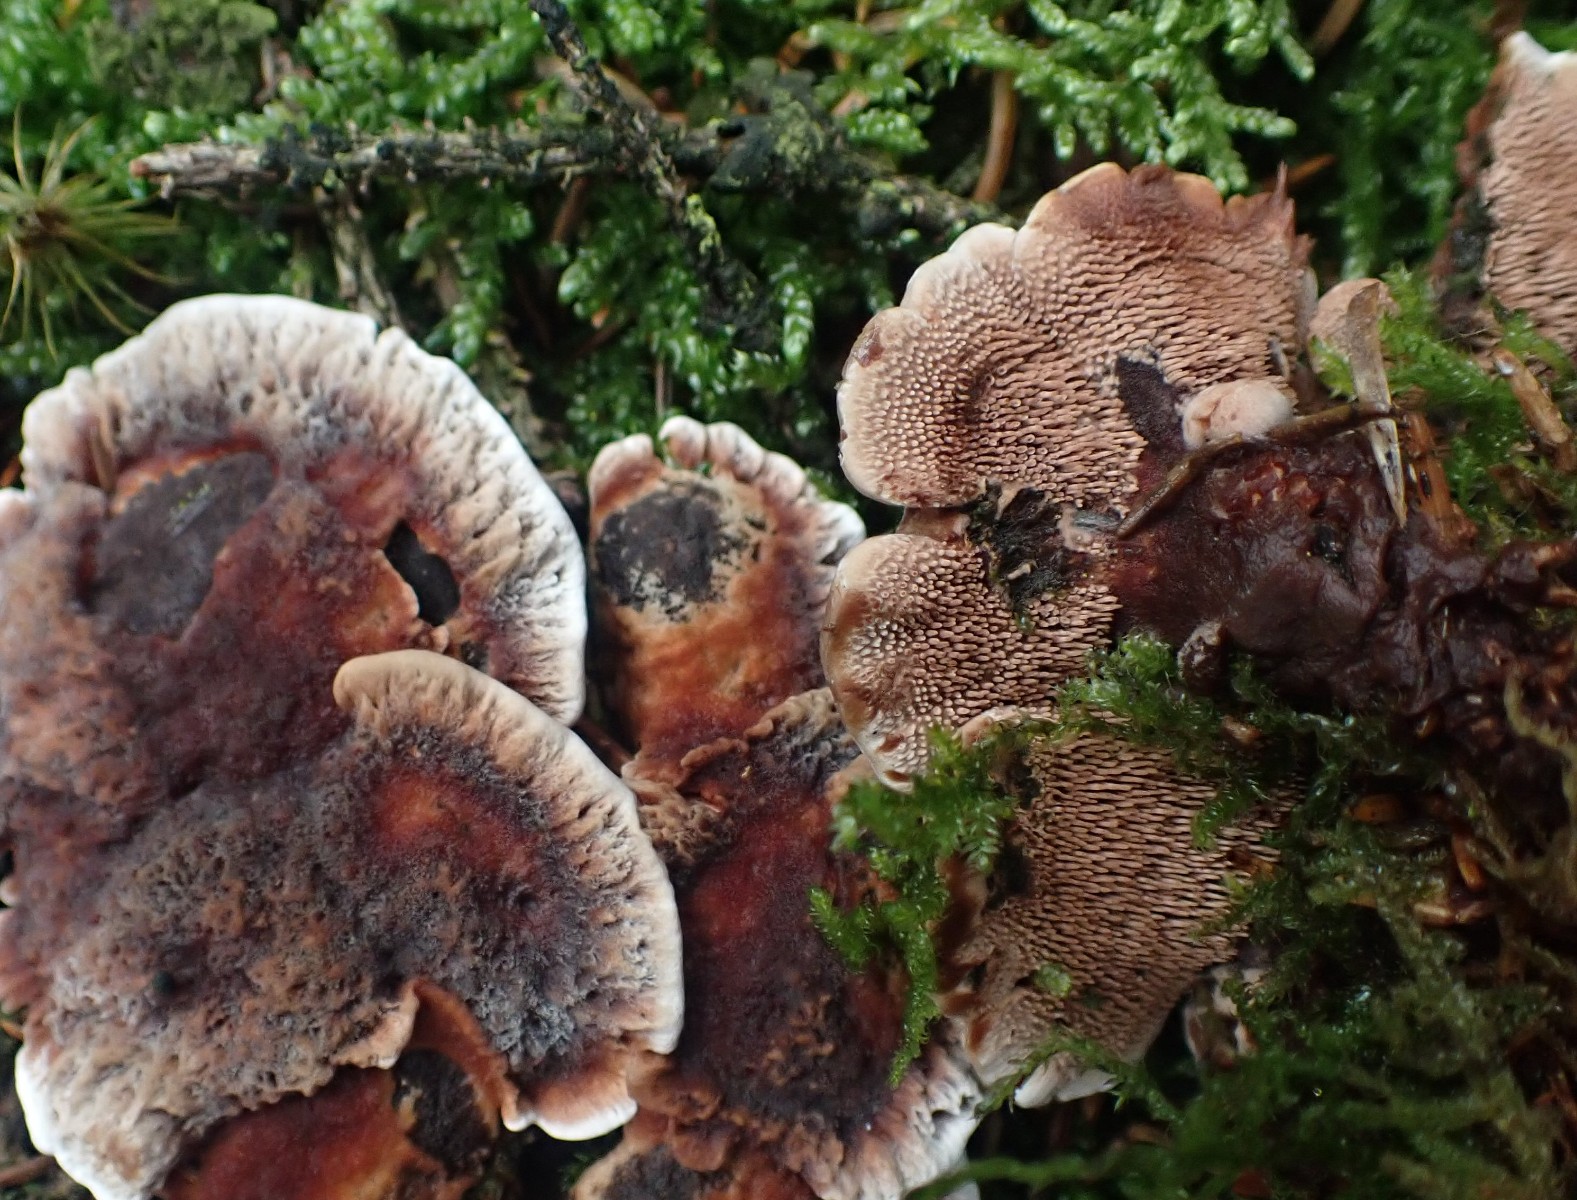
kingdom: Fungi
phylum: Basidiomycota
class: Agaricomycetes
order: Thelephorales
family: Bankeraceae
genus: Hydnellum
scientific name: Hydnellum
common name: korkpigsvamp
